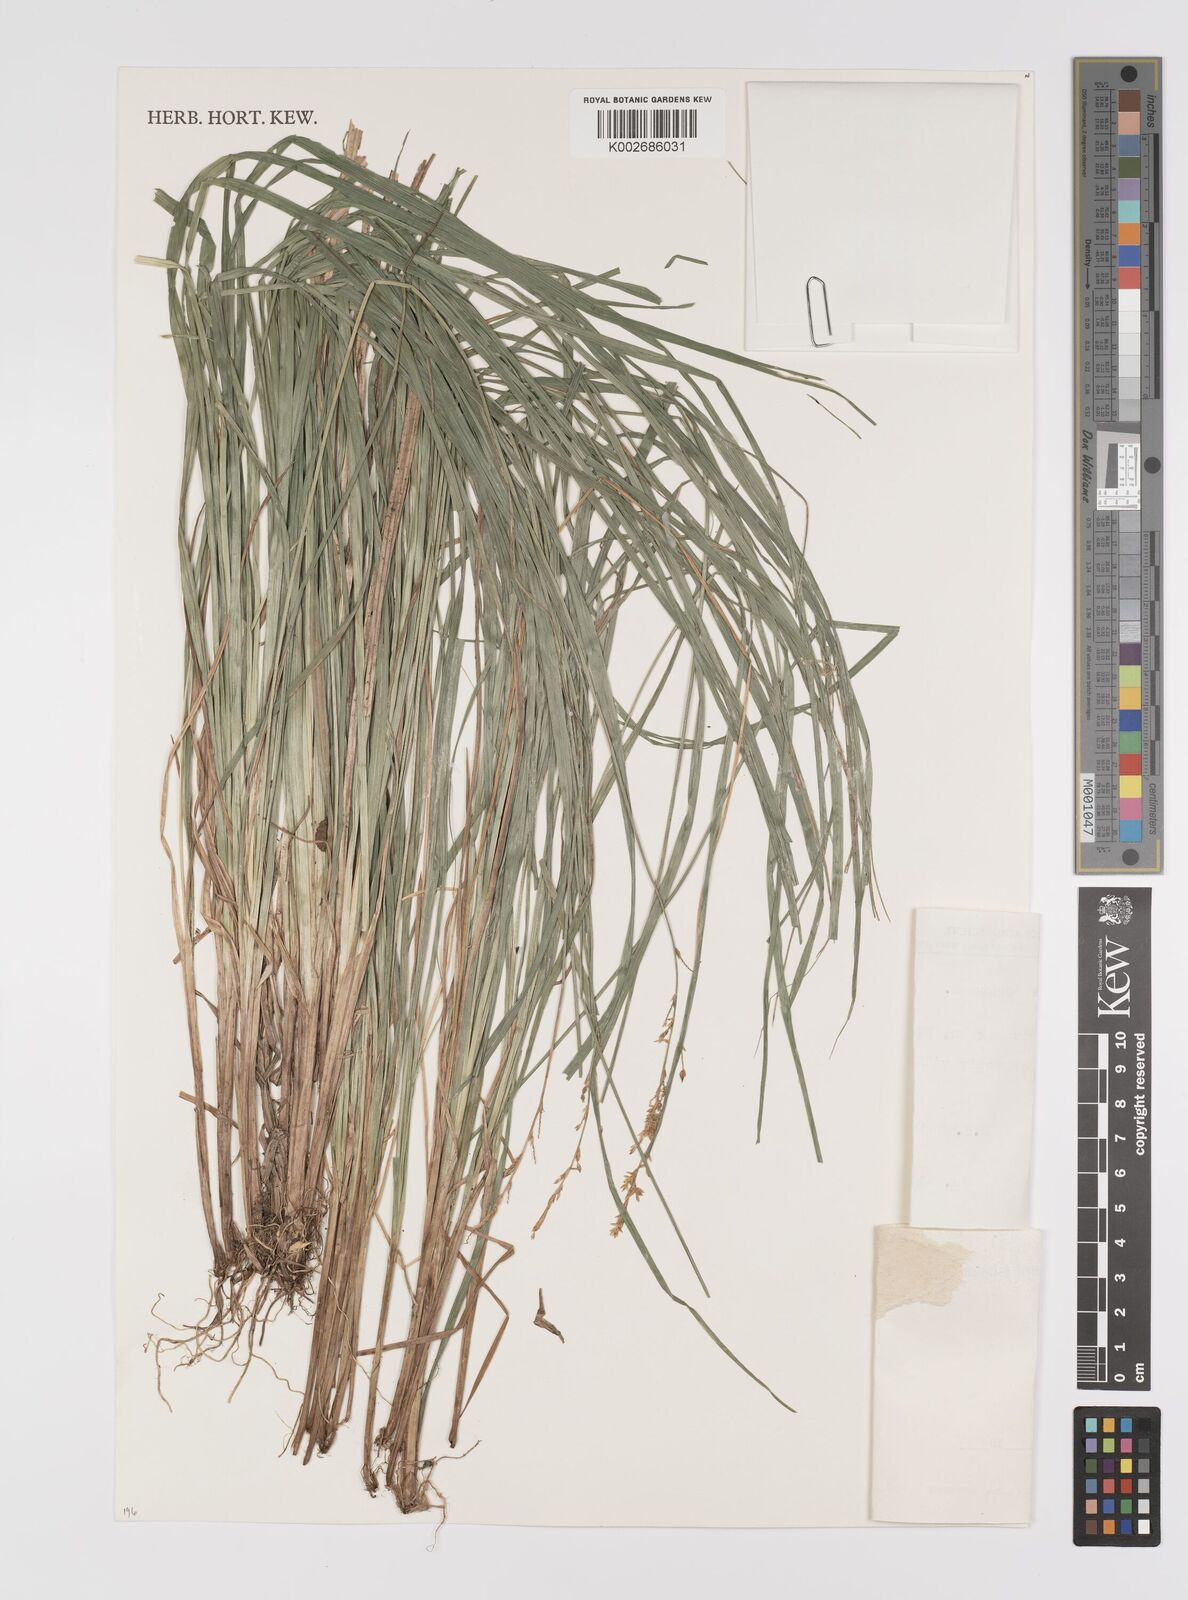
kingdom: Plantae
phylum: Tracheophyta
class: Liliopsida
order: Poales
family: Cyperaceae
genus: Carex
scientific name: Carex elongata
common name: Elongated sedge
